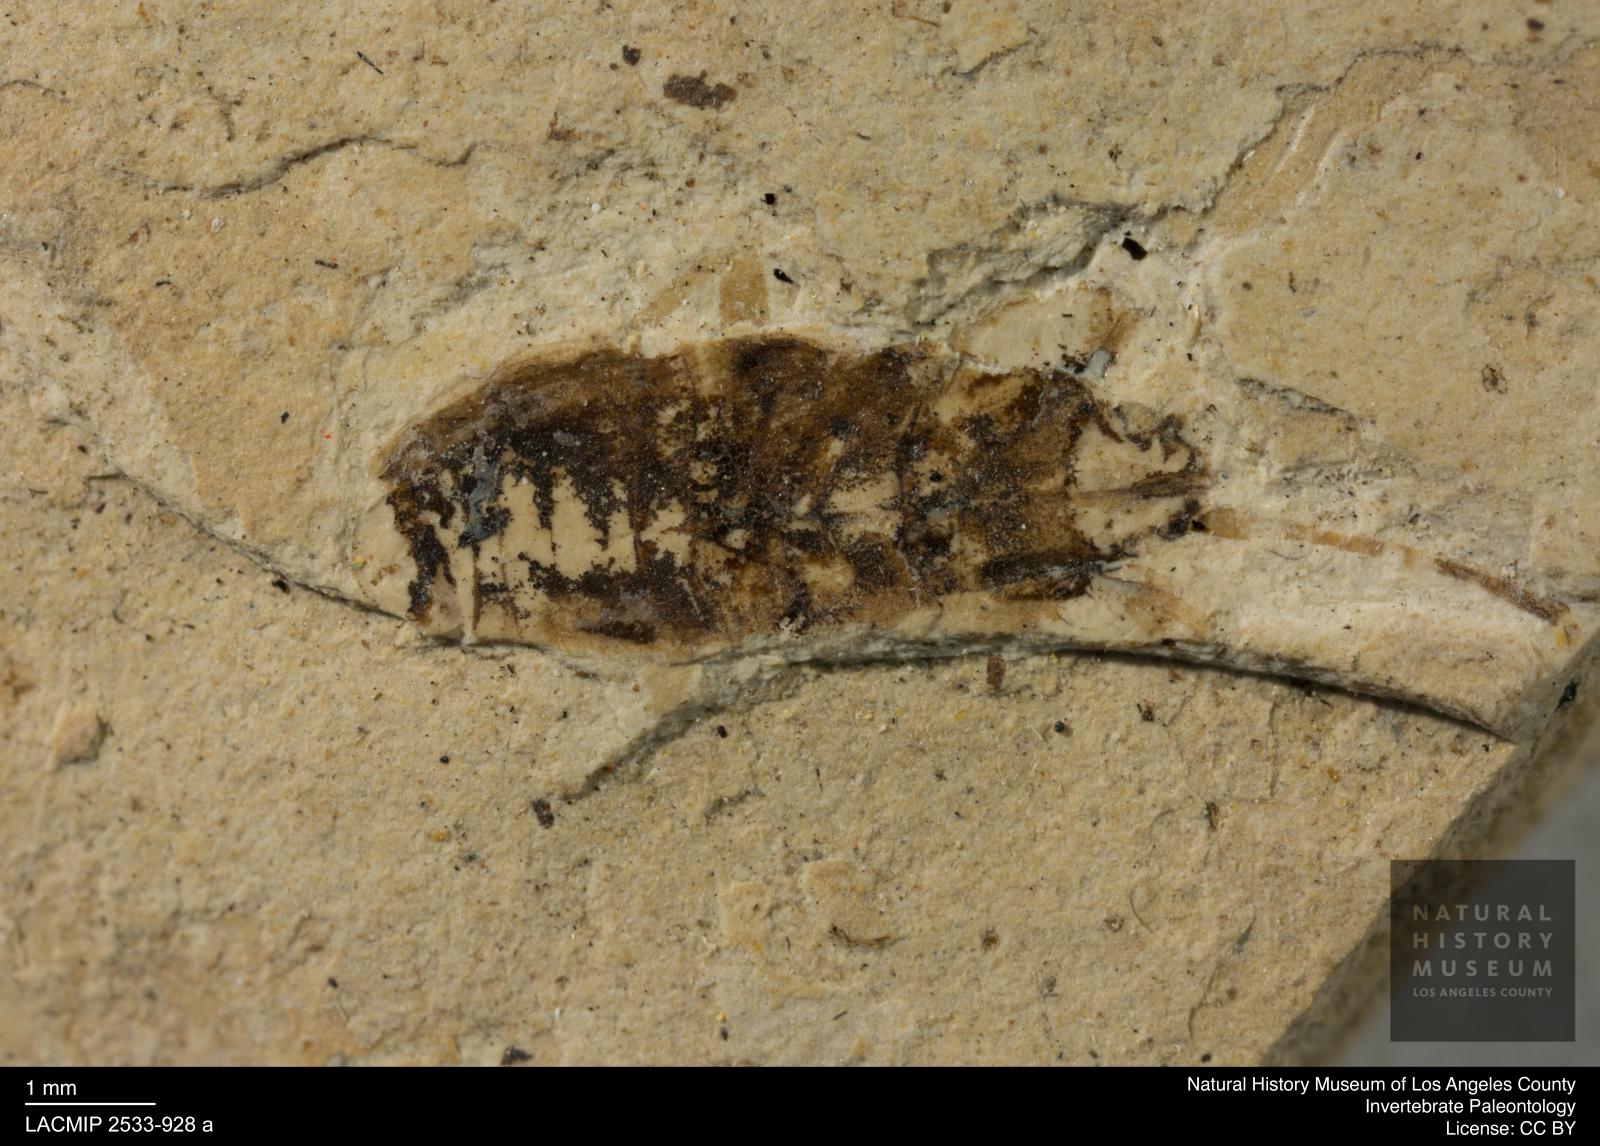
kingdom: Animalia
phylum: Arthropoda
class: Insecta
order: Hemiptera
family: Rhyparochromidae
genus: Raglius
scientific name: Raglius decoratus
